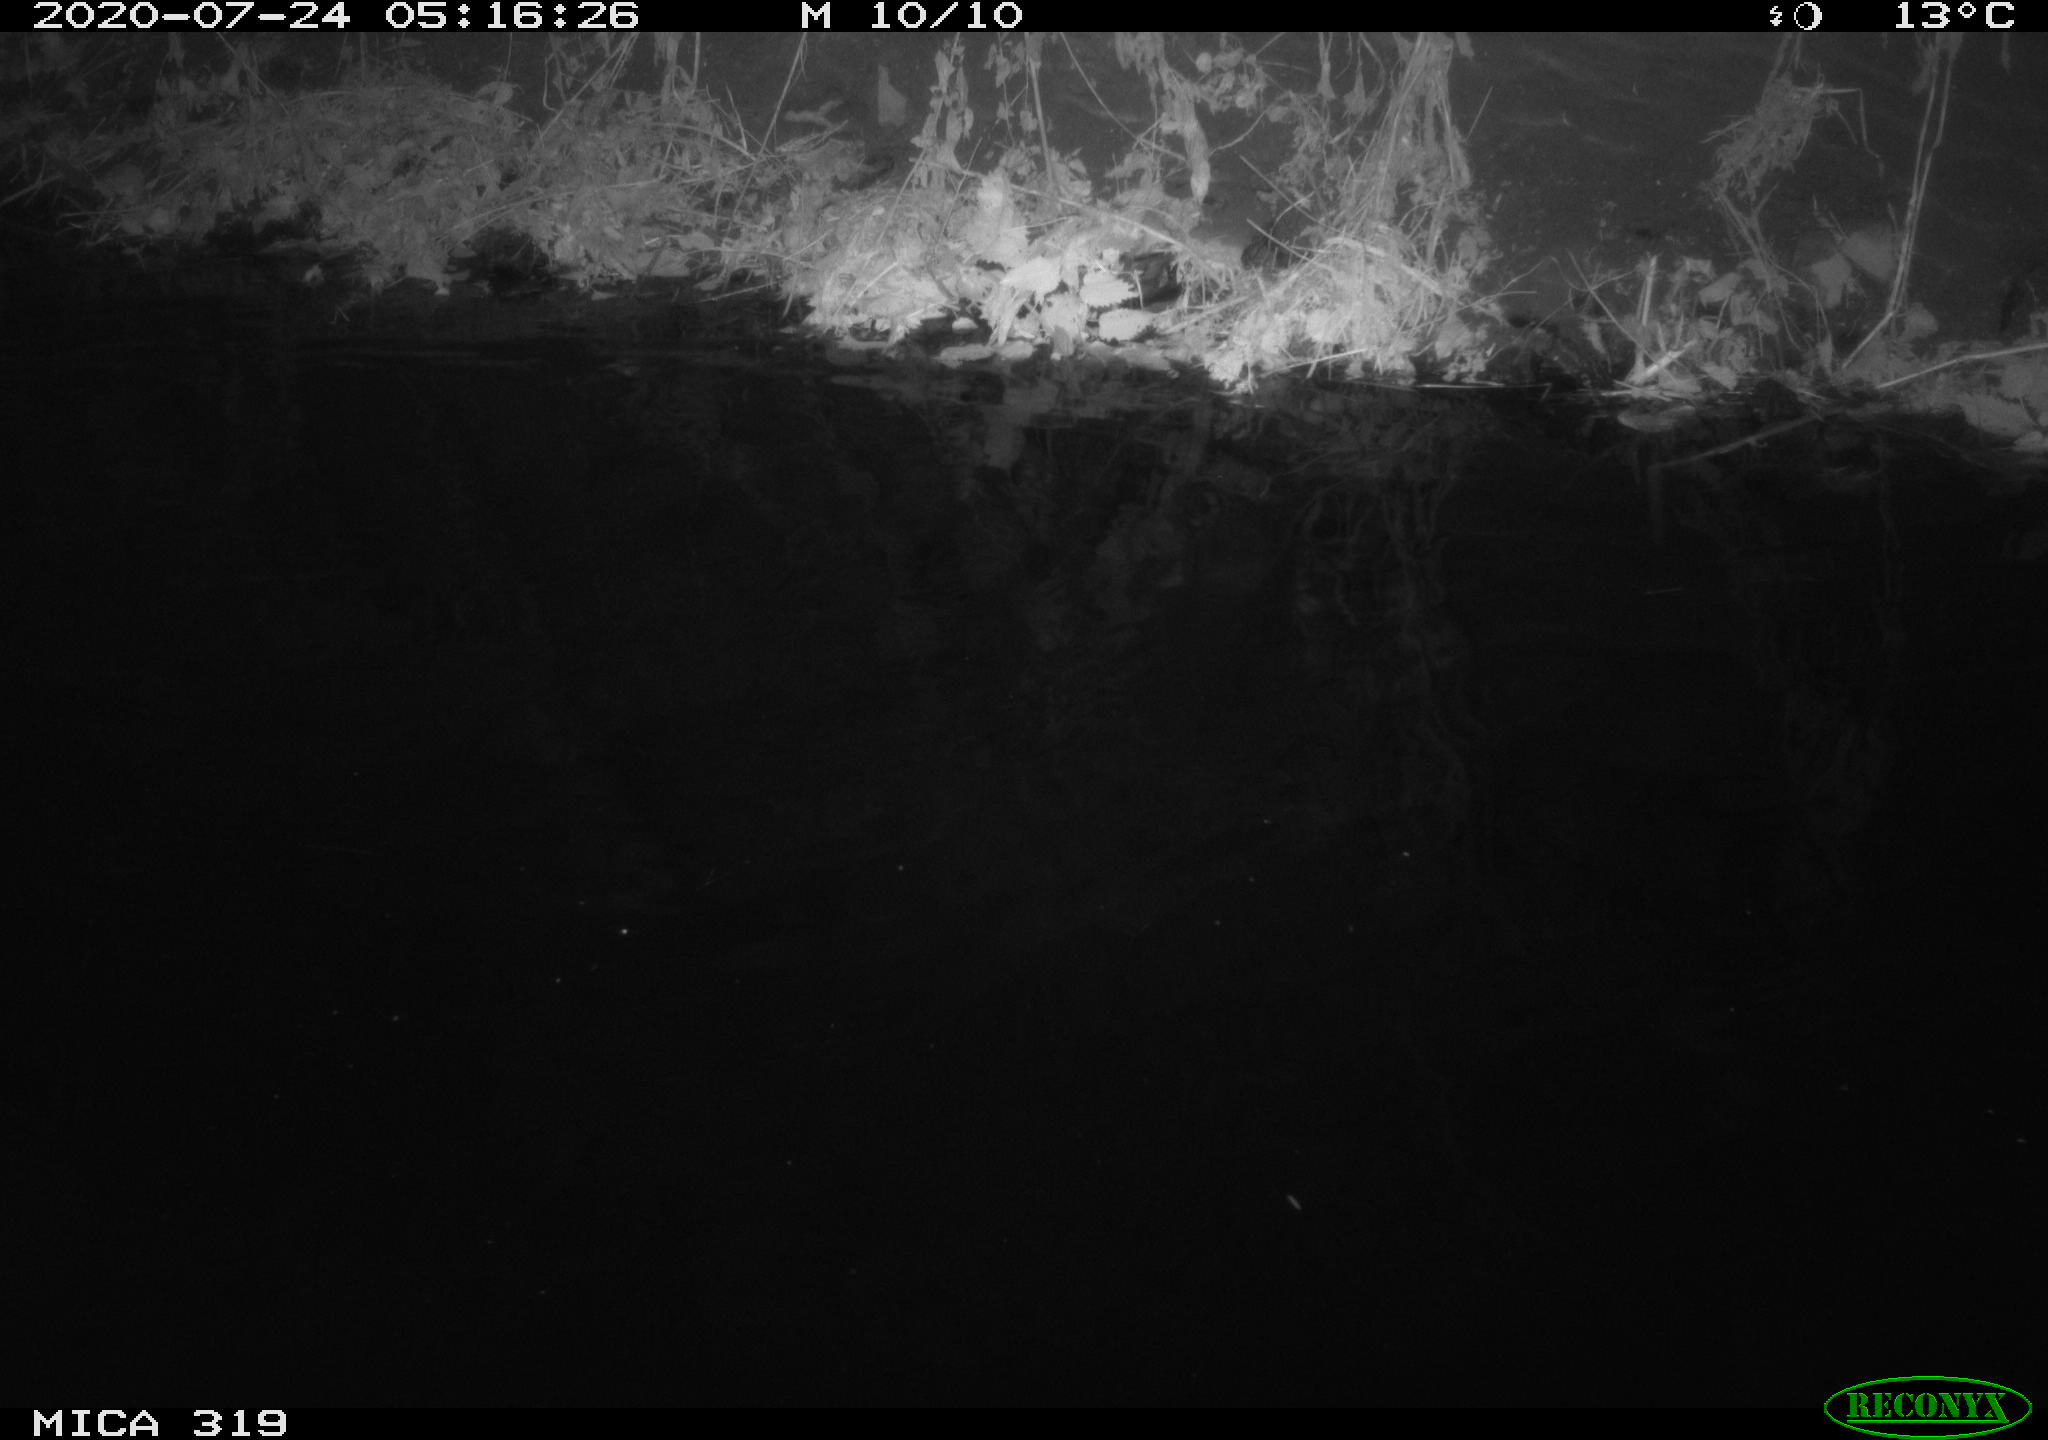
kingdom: Animalia
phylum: Chordata
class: Aves
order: Anseriformes
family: Anatidae
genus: Anas
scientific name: Anas platyrhynchos
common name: Mallard
